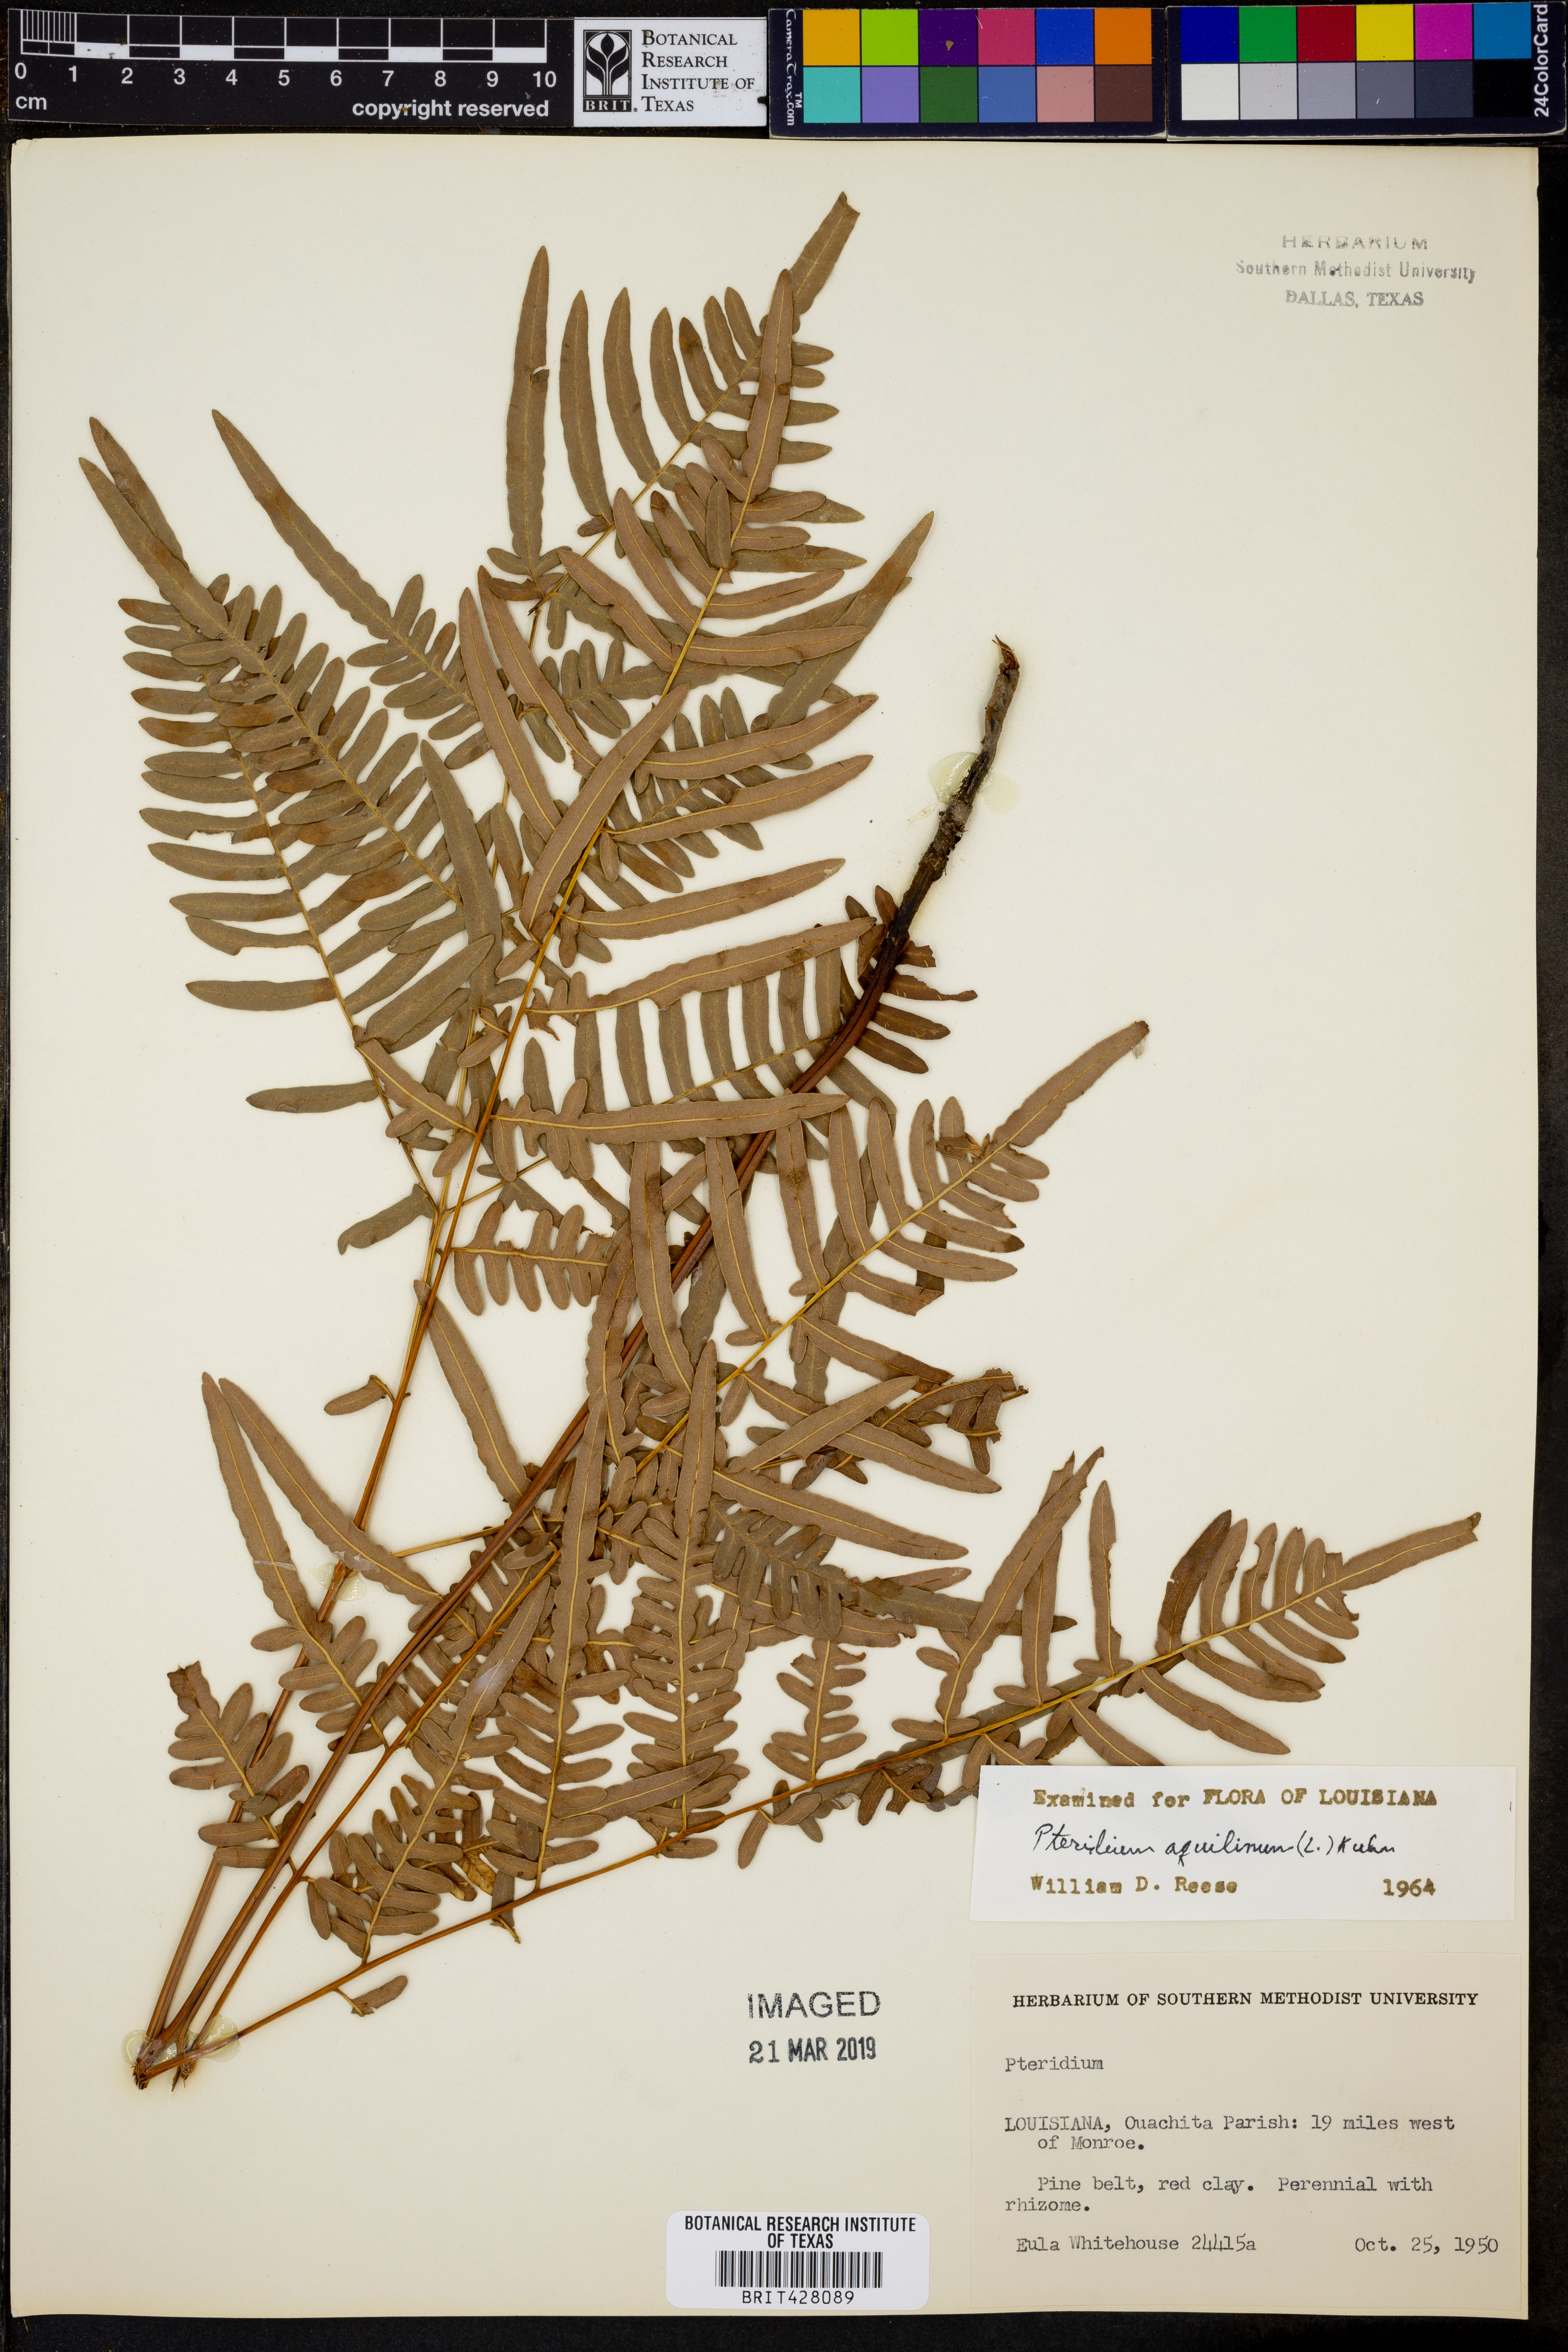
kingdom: Plantae
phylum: Tracheophyta
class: Polypodiopsida
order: Polypodiales
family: Dennstaedtiaceae
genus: Pteridium
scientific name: Pteridium aquilinum
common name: Bracken
